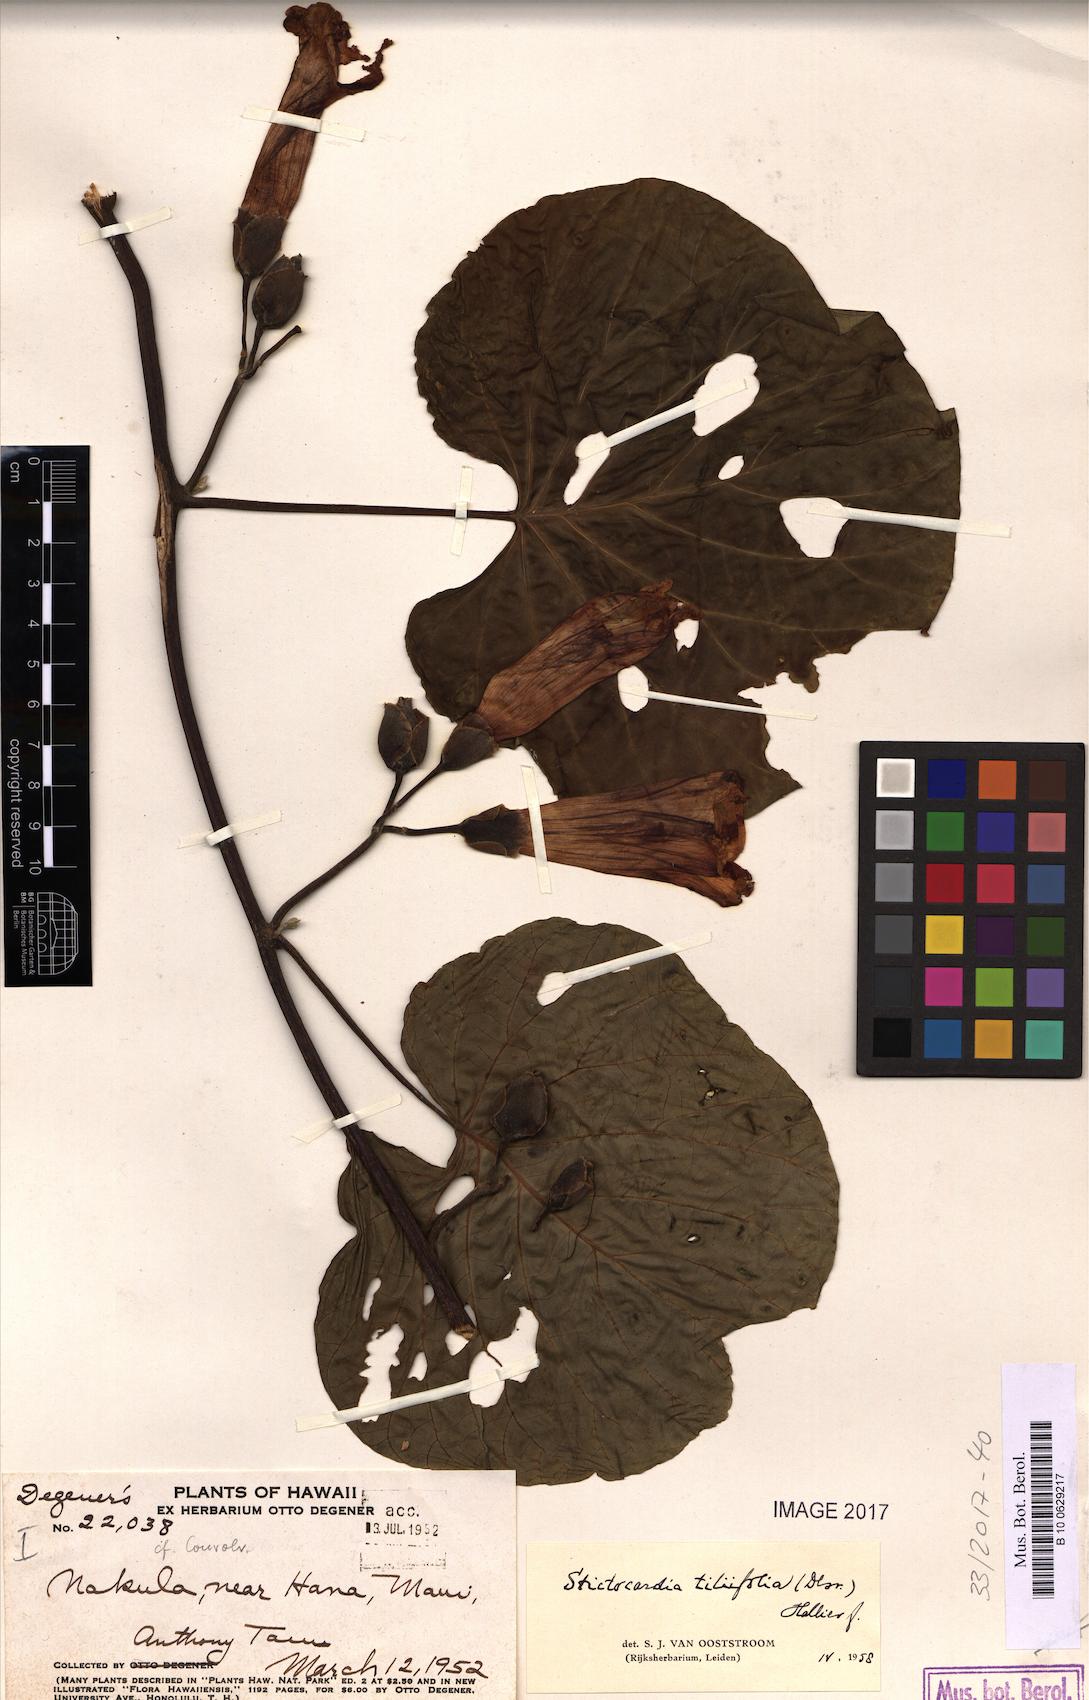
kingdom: Plantae
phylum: Tracheophyta
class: Magnoliopsida
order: Solanales
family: Convolvulaceae
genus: Stictocardia
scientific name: Stictocardia tiliifolia
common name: Spottedheart
